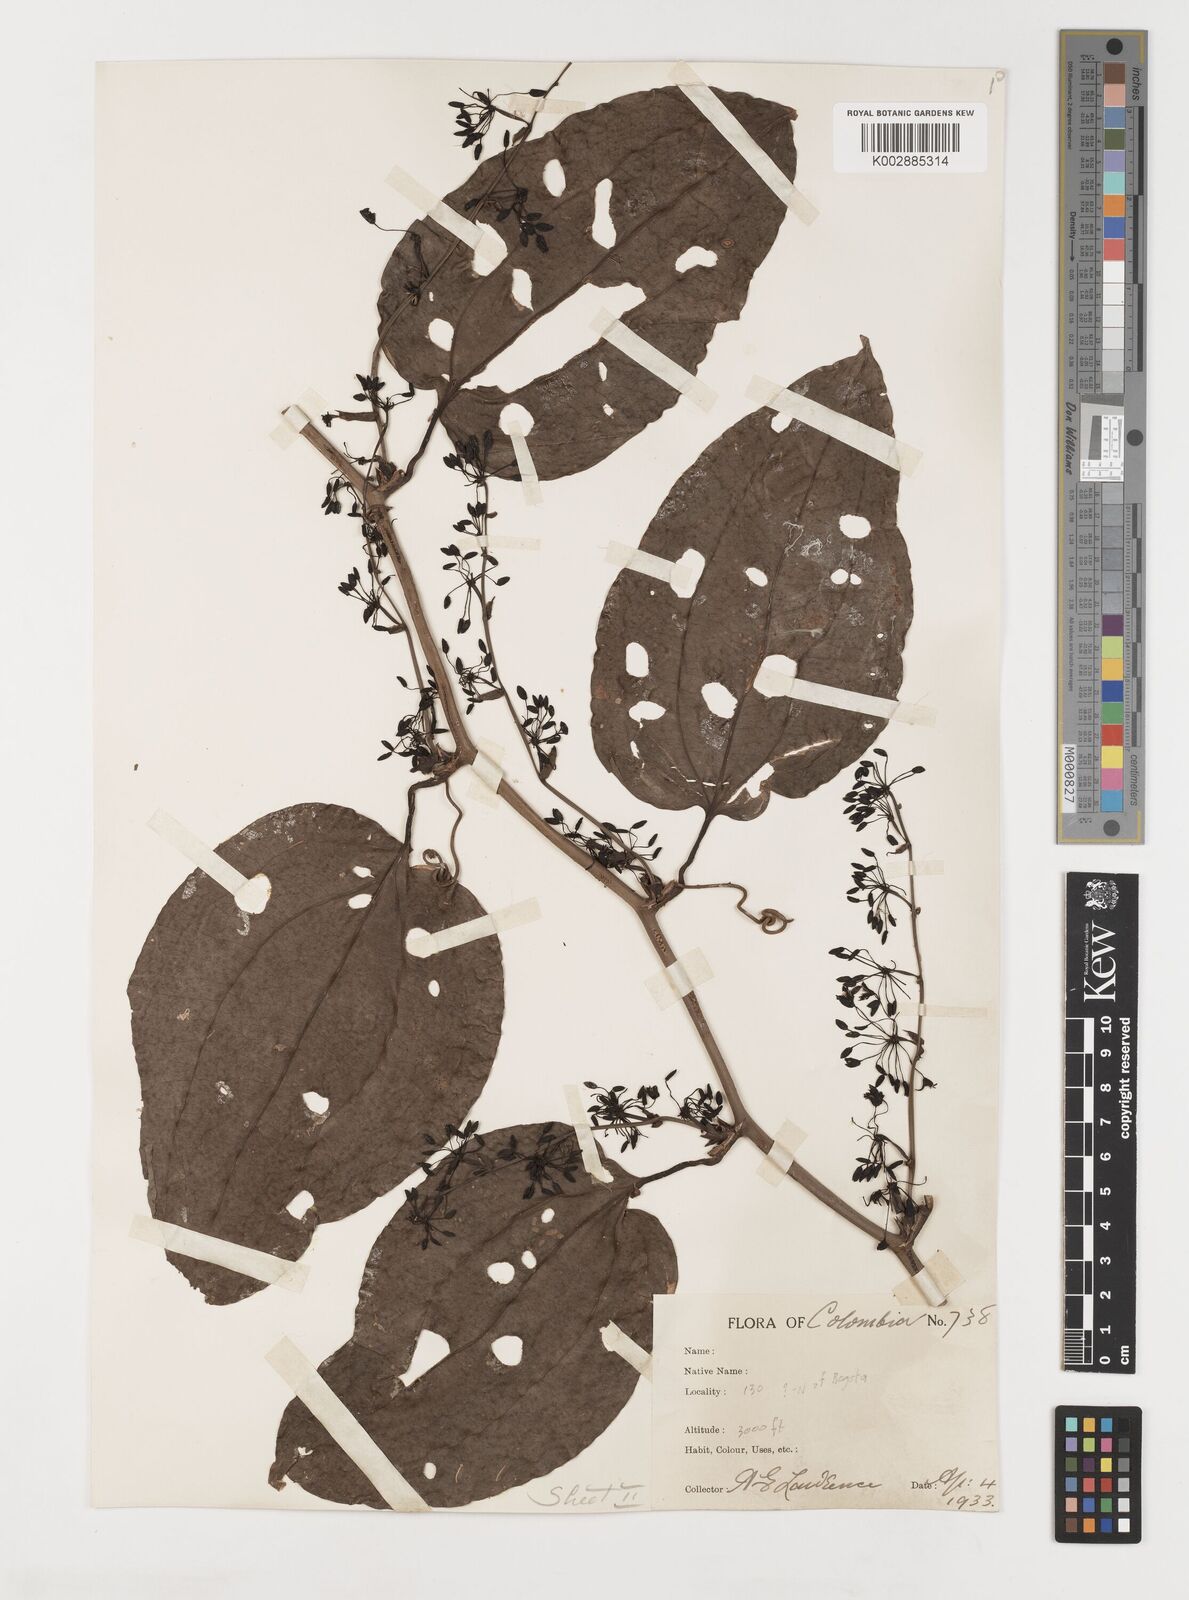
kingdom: Plantae
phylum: Tracheophyta
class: Liliopsida
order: Liliales
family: Smilacaceae
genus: Smilax
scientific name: Smilax purhampuy
